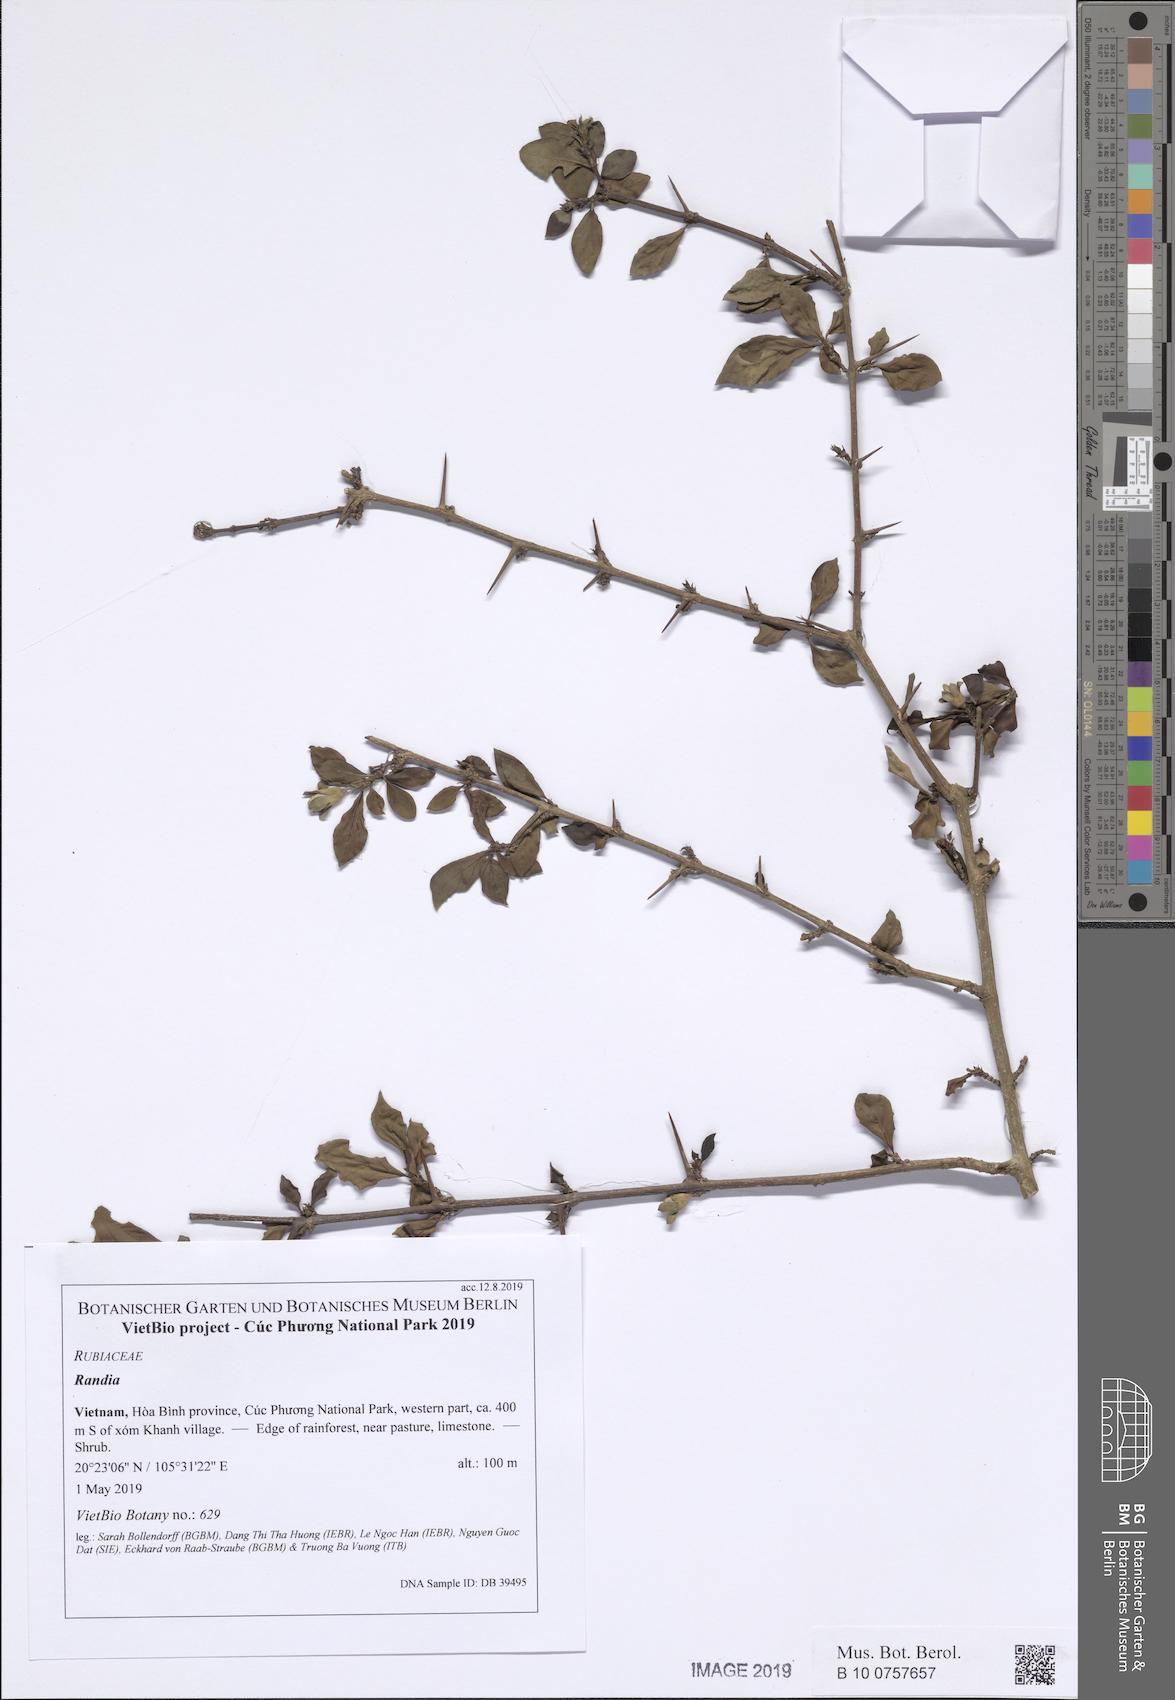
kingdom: Plantae
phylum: Tracheophyta
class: Magnoliopsida
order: Gentianales
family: Rubiaceae
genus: Catunaregam
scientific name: Catunaregam spinosa
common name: Emetic-nut
